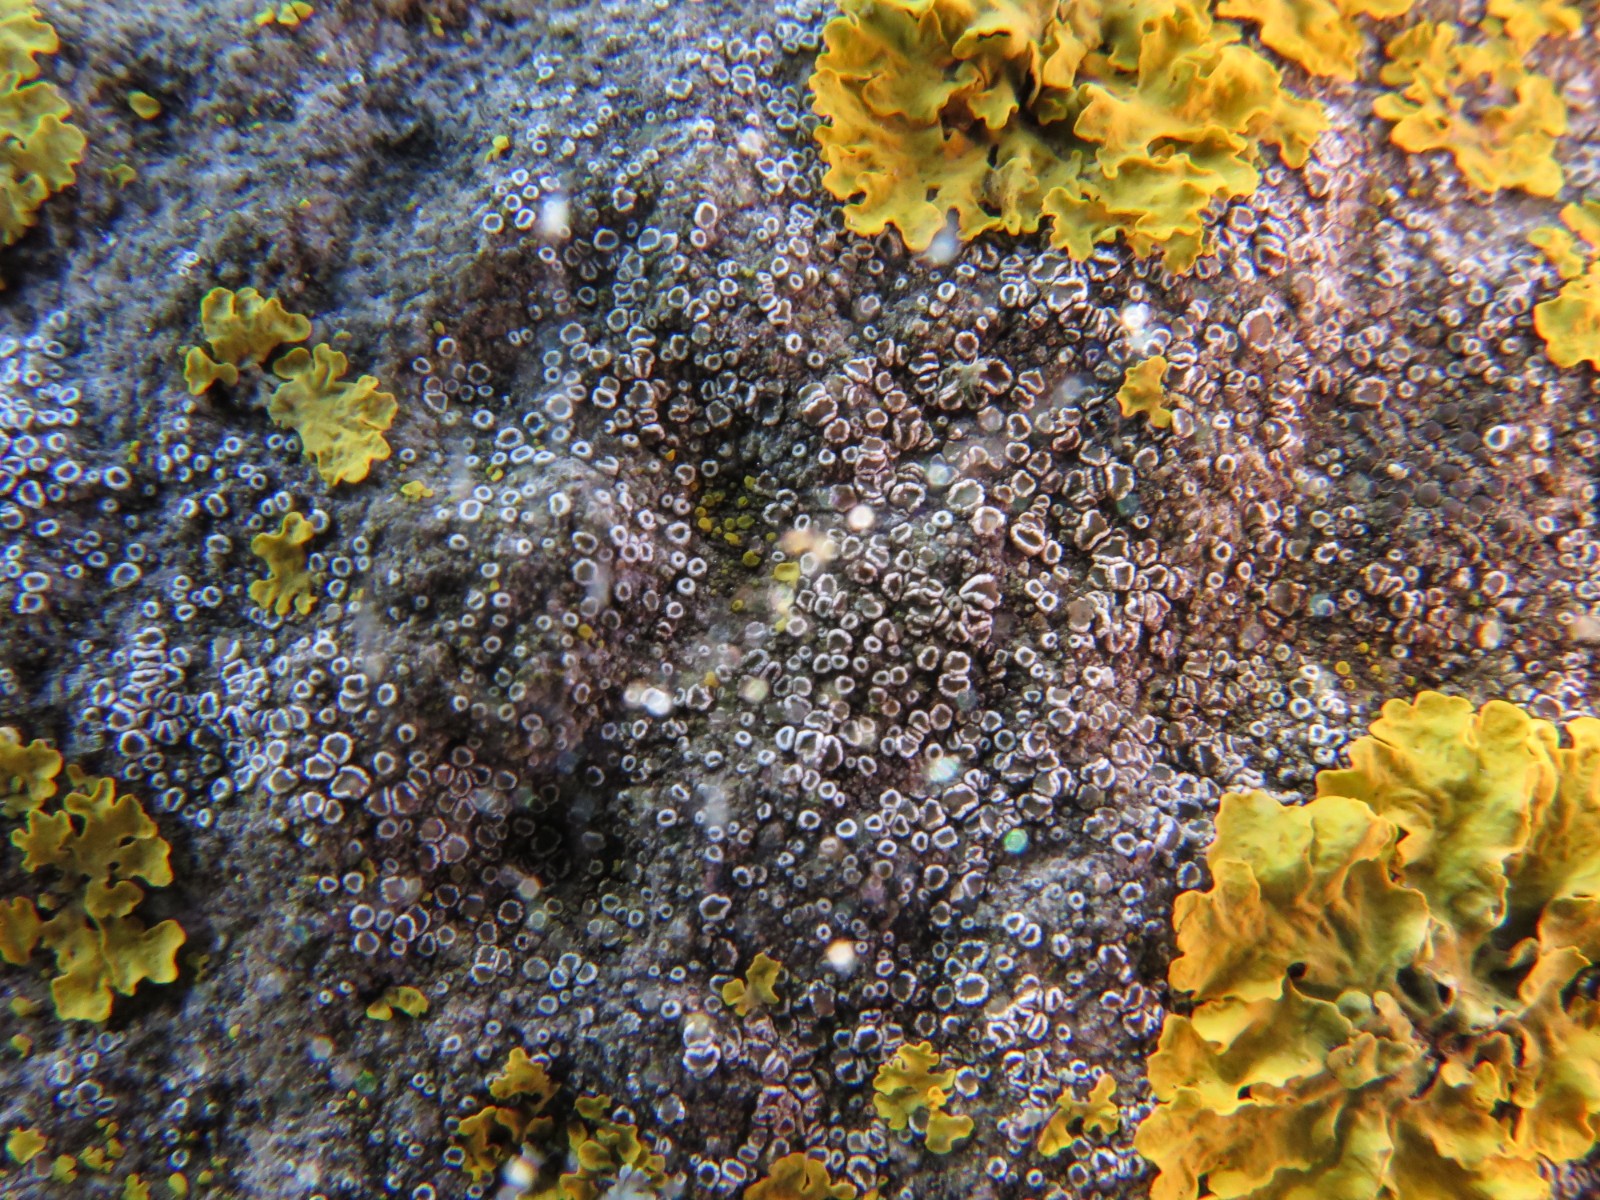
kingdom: Fungi
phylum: Ascomycota
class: Lecanoromycetes
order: Lecanorales
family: Lecanoraceae
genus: Polyozosia
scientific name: Polyozosia dispersa
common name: spredt kantskivelav
